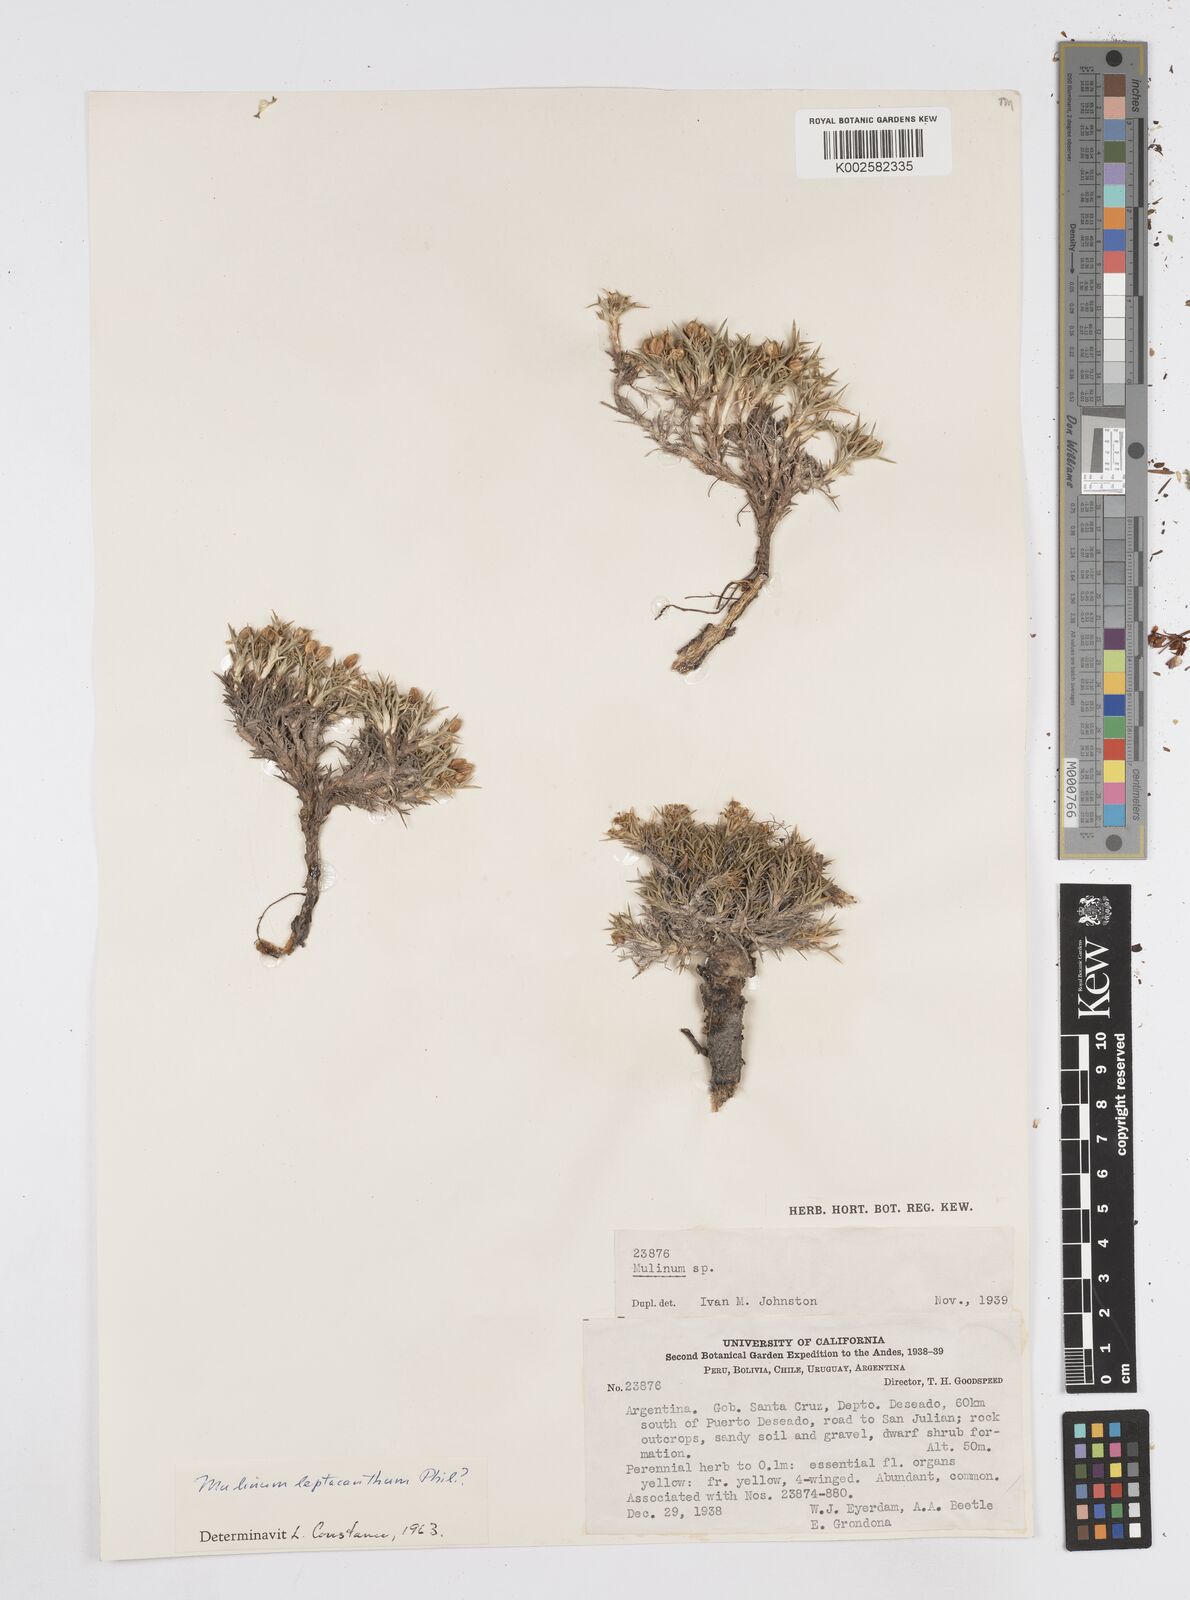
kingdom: Plantae
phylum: Tracheophyta
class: Magnoliopsida
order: Apiales
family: Apiaceae
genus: Azorella
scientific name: Azorella nivalis
